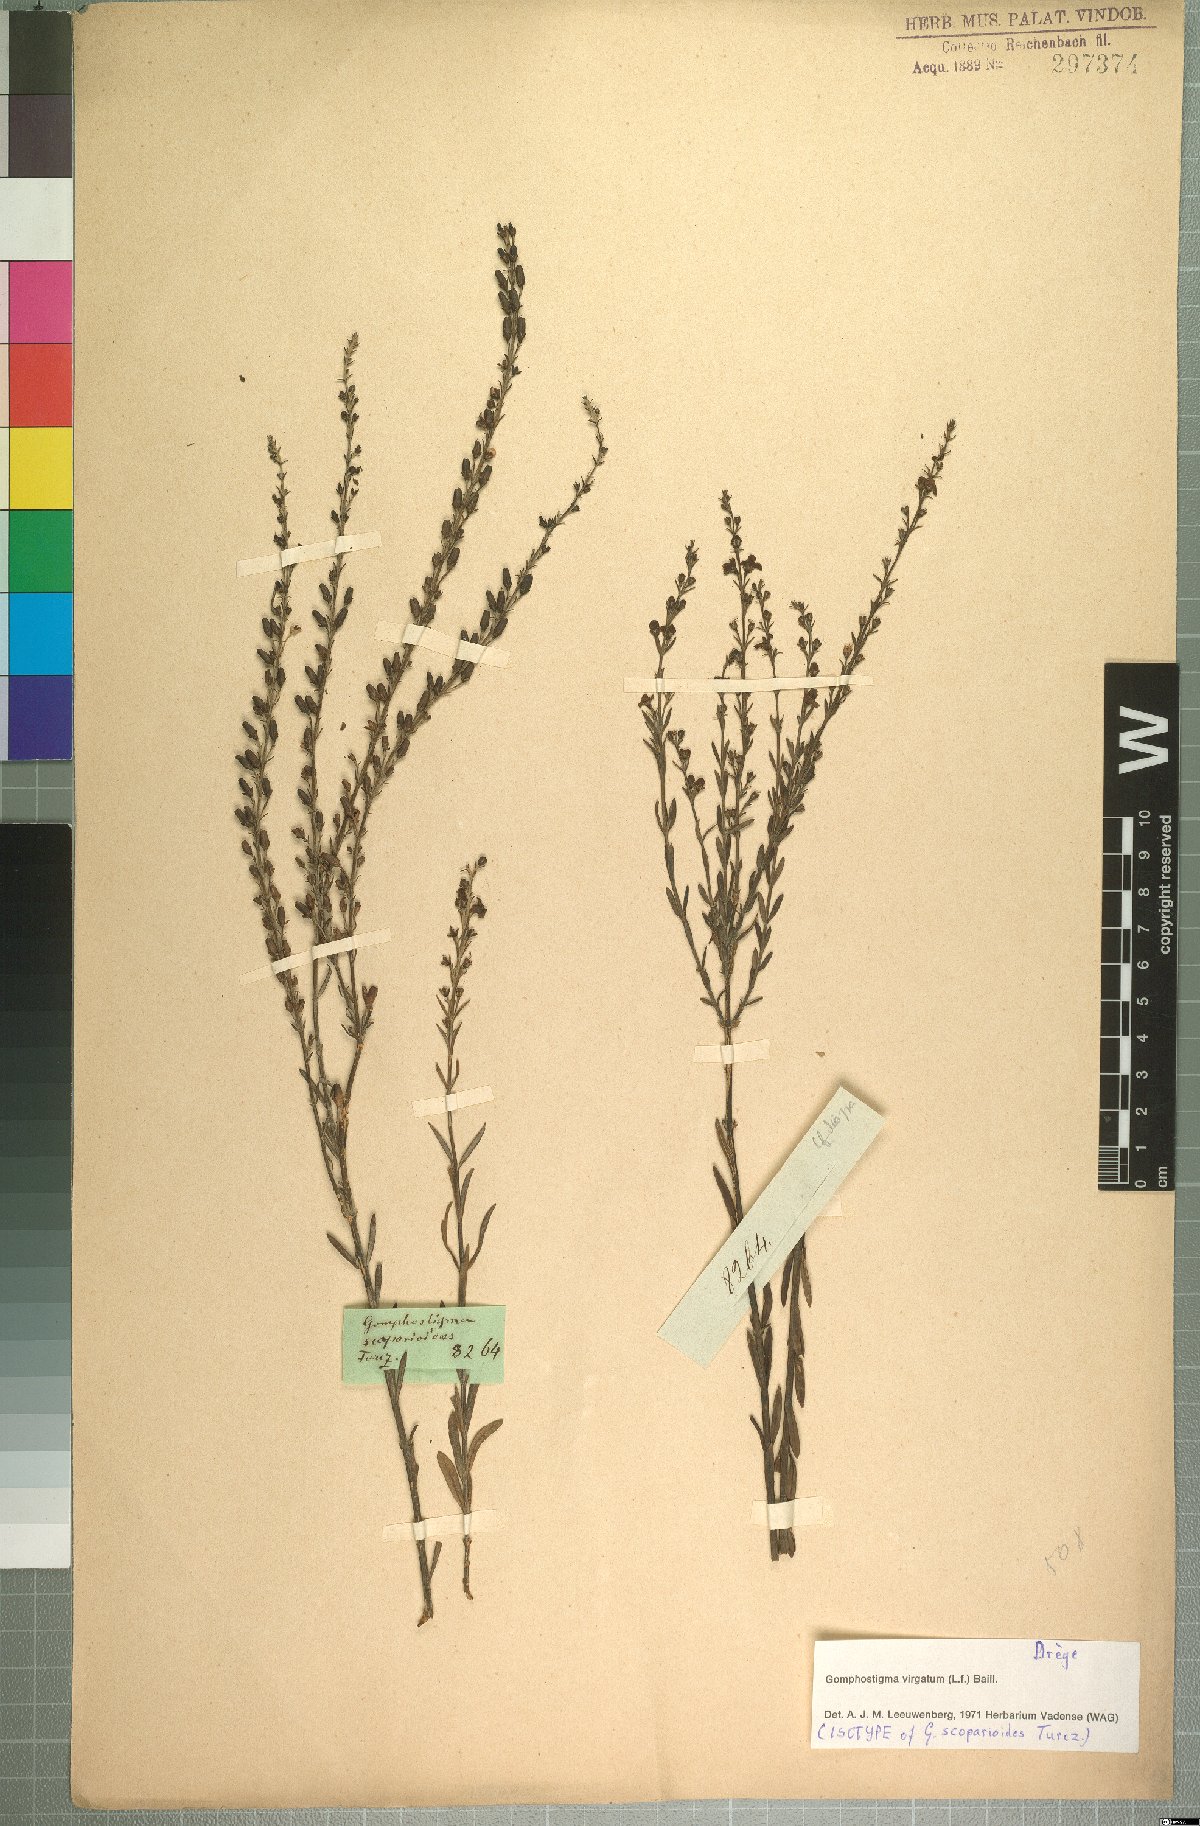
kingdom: Plantae
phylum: Tracheophyta
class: Magnoliopsida
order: Lamiales
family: Scrophulariaceae
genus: Buddleja
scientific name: Buddleja virgata
